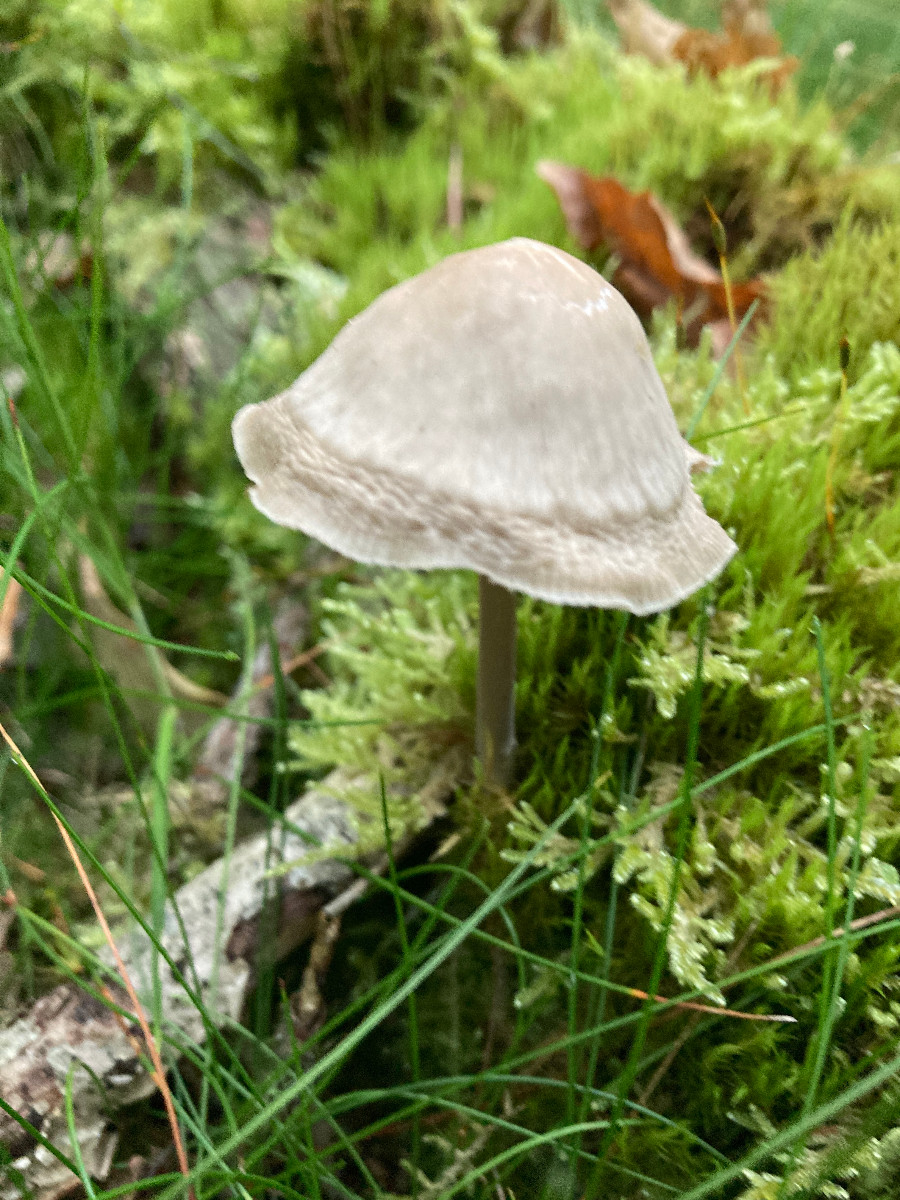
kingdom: Fungi
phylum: Basidiomycota
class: Agaricomycetes
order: Agaricales
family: Mycenaceae
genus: Mycena
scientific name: Mycena galericulata
